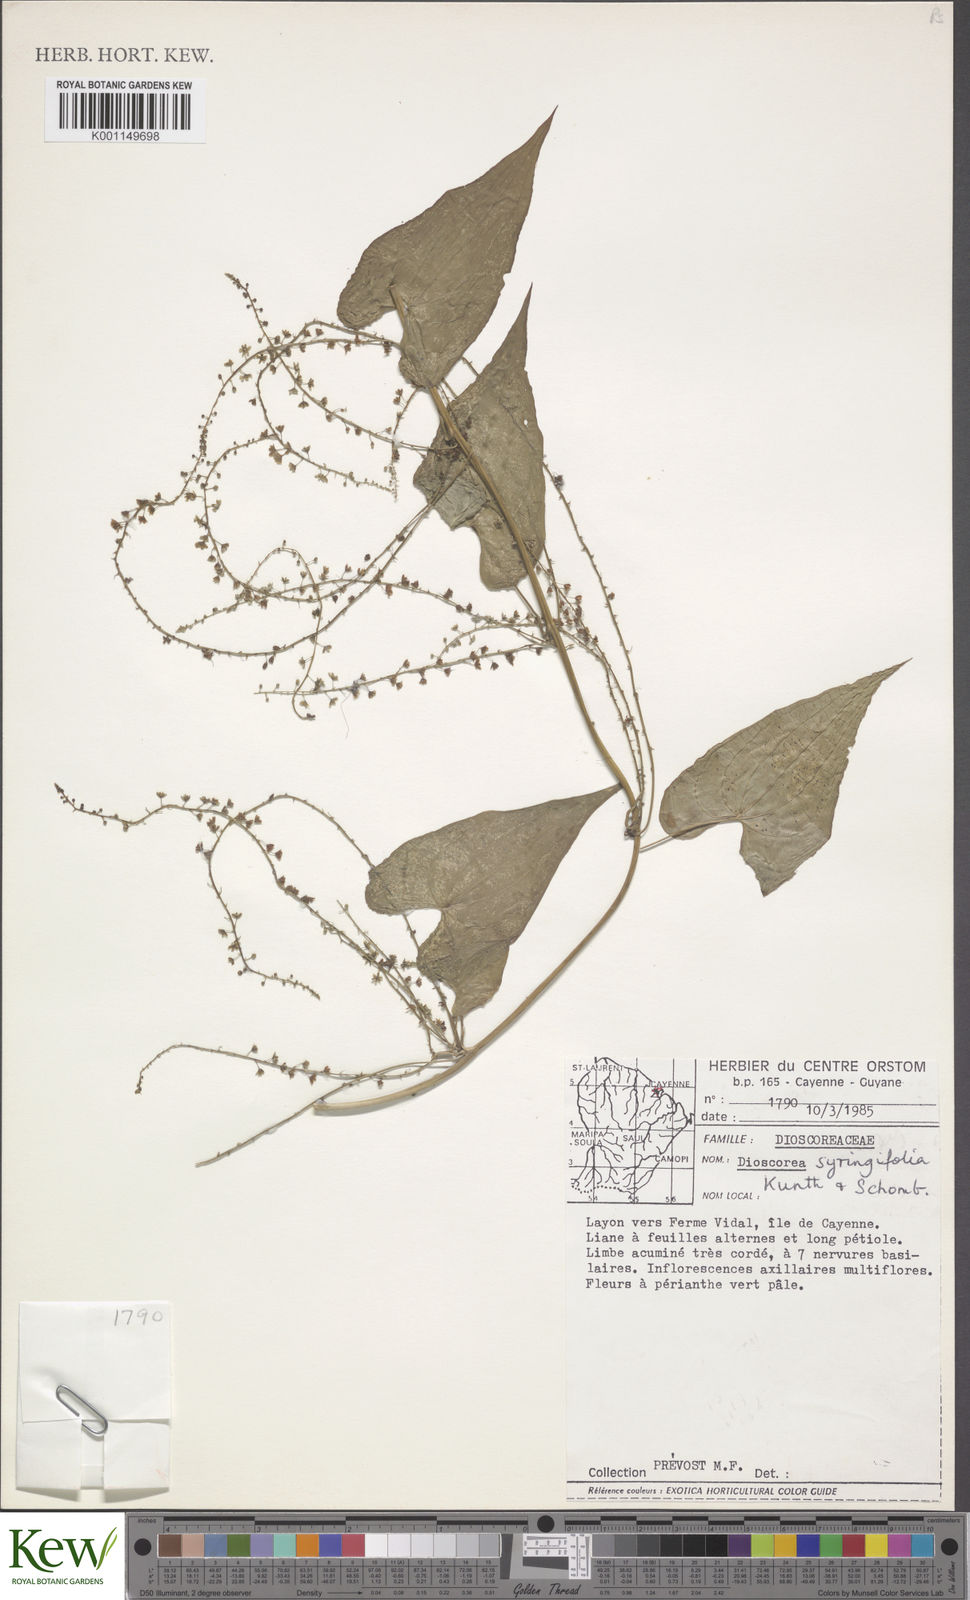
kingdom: Plantae
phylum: Tracheophyta
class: Liliopsida
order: Dioscoreales
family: Dioscoreaceae
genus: Dioscorea
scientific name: Dioscorea syringifolia
